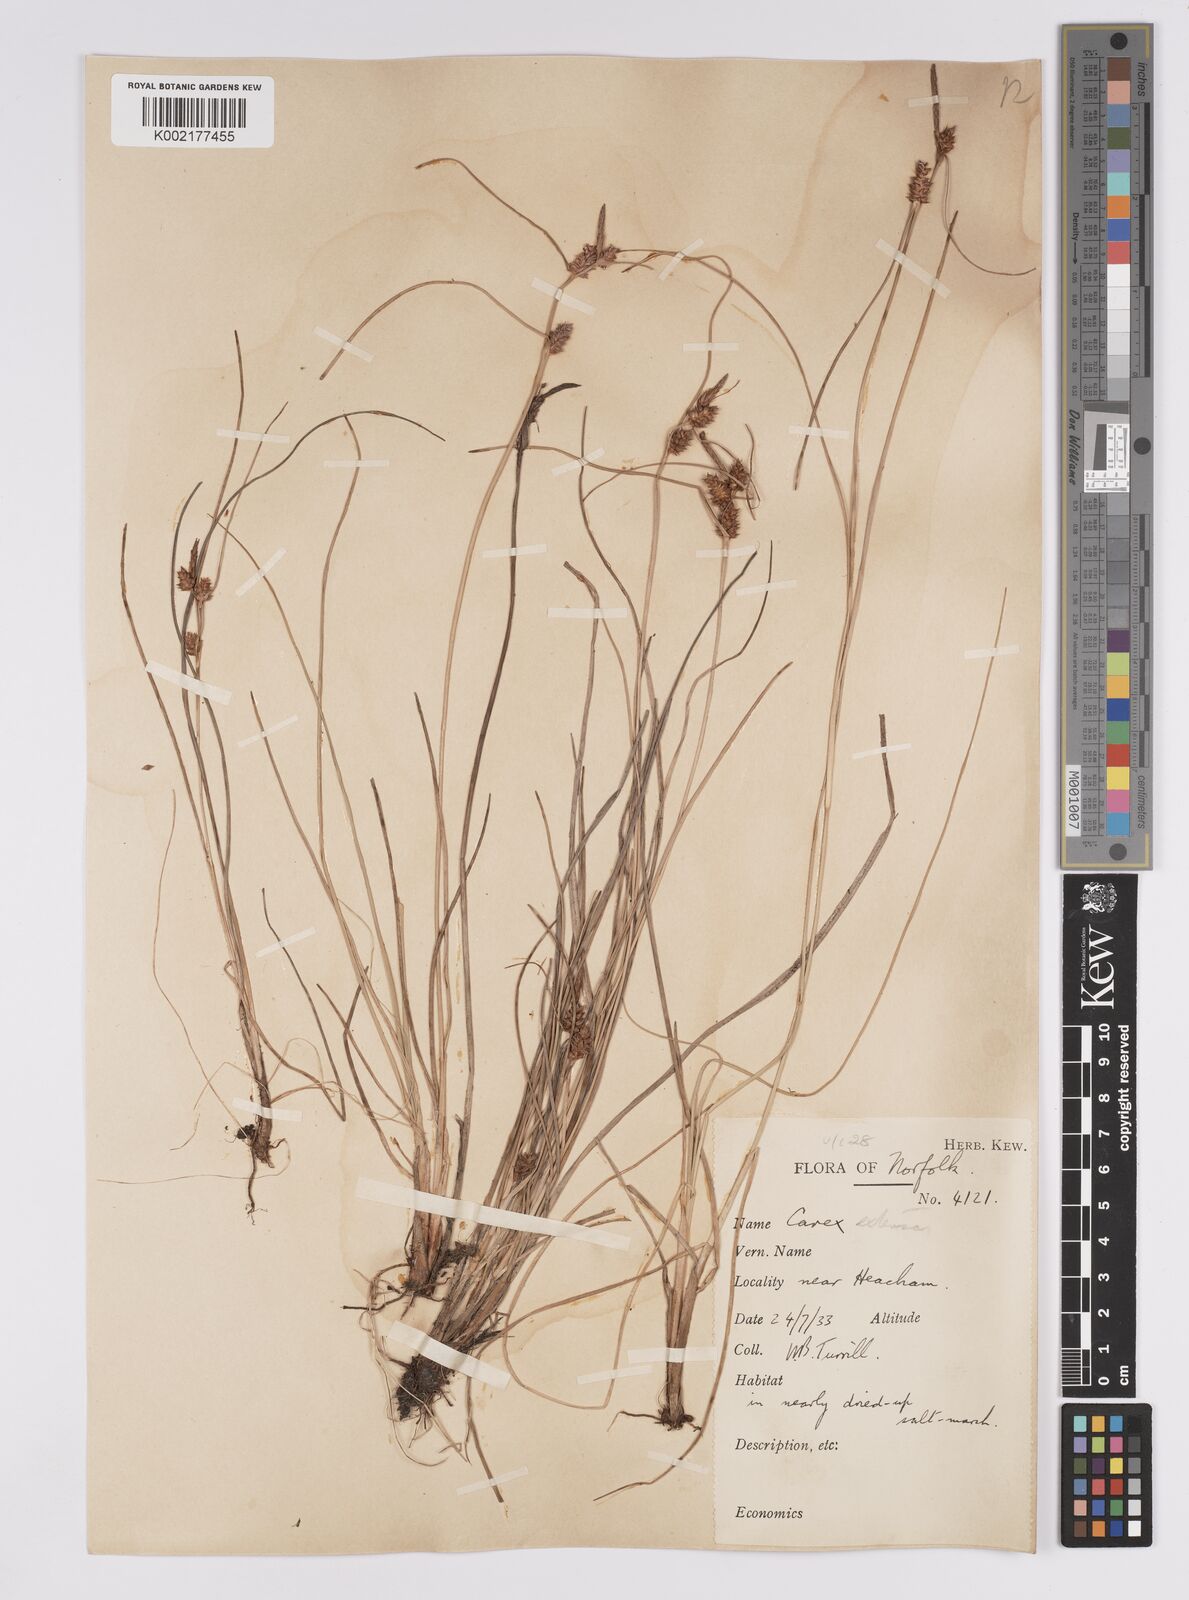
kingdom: Plantae
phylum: Tracheophyta
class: Liliopsida
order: Poales
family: Cyperaceae
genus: Carex
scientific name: Carex extensa
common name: Long-bracted sedge
